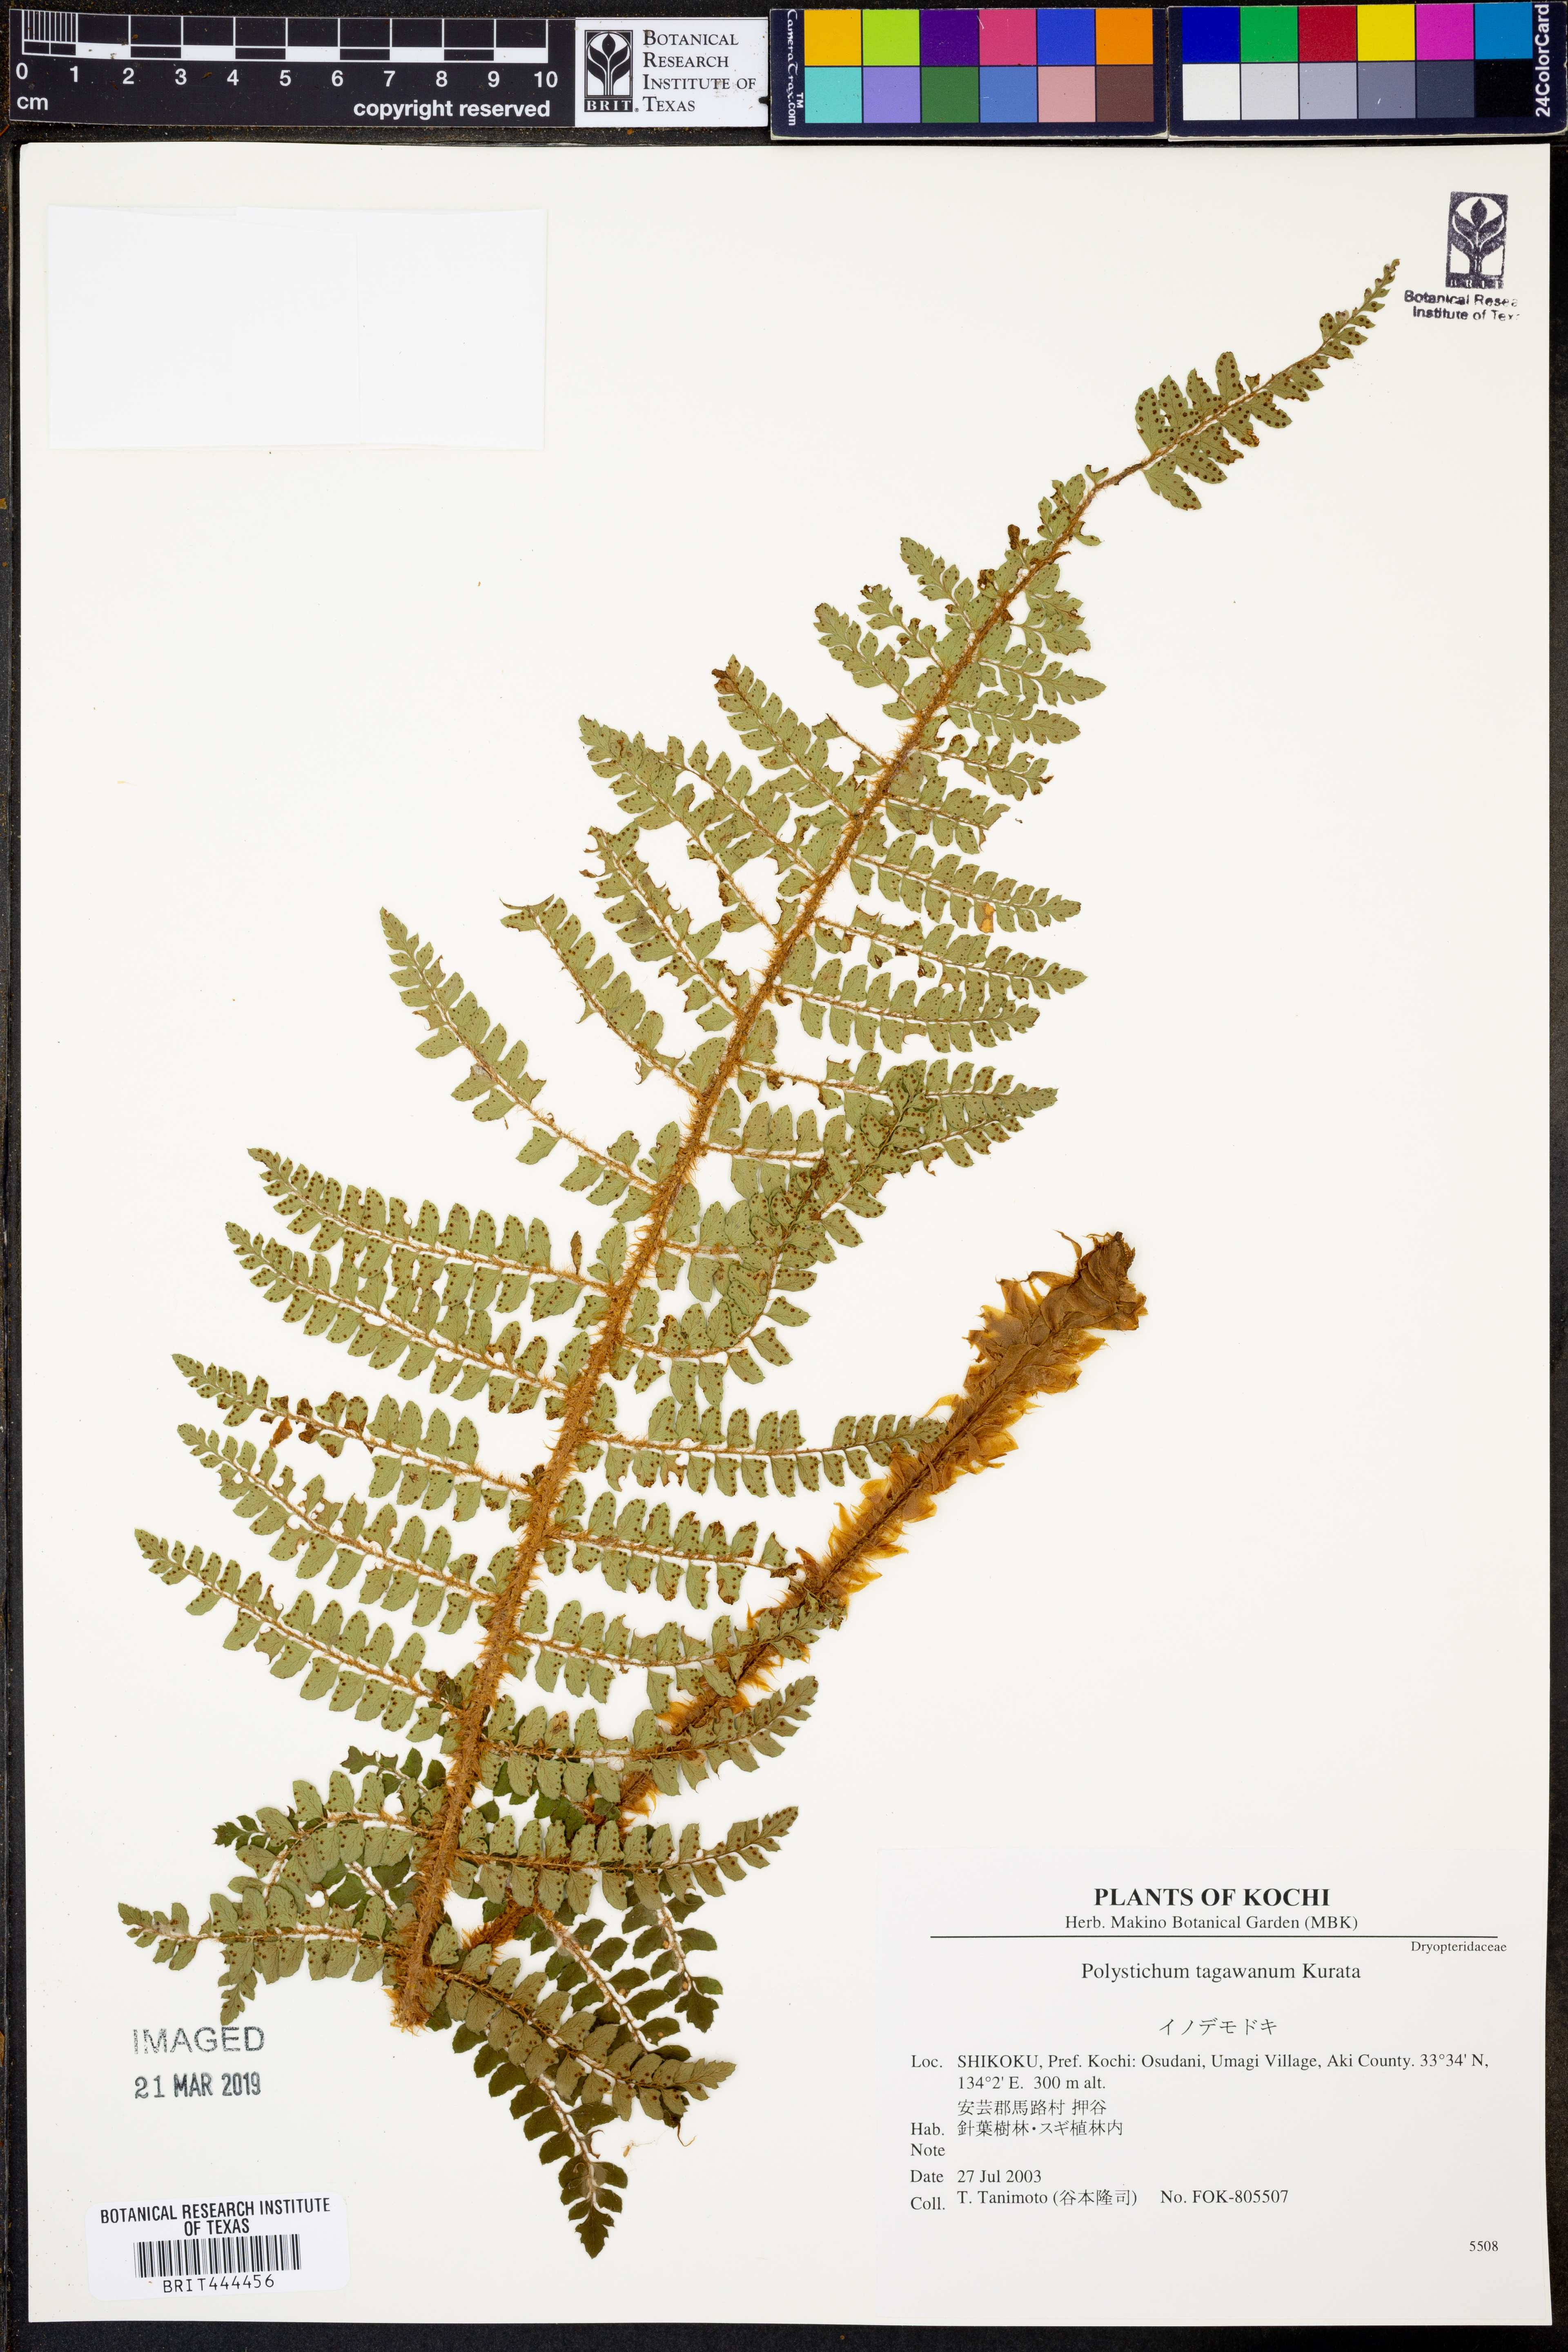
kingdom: Plantae
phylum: Tracheophyta
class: Polypodiopsida
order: Polypodiales
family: Dryopteridaceae
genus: Polystichum
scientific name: Polystichum tagawanum
